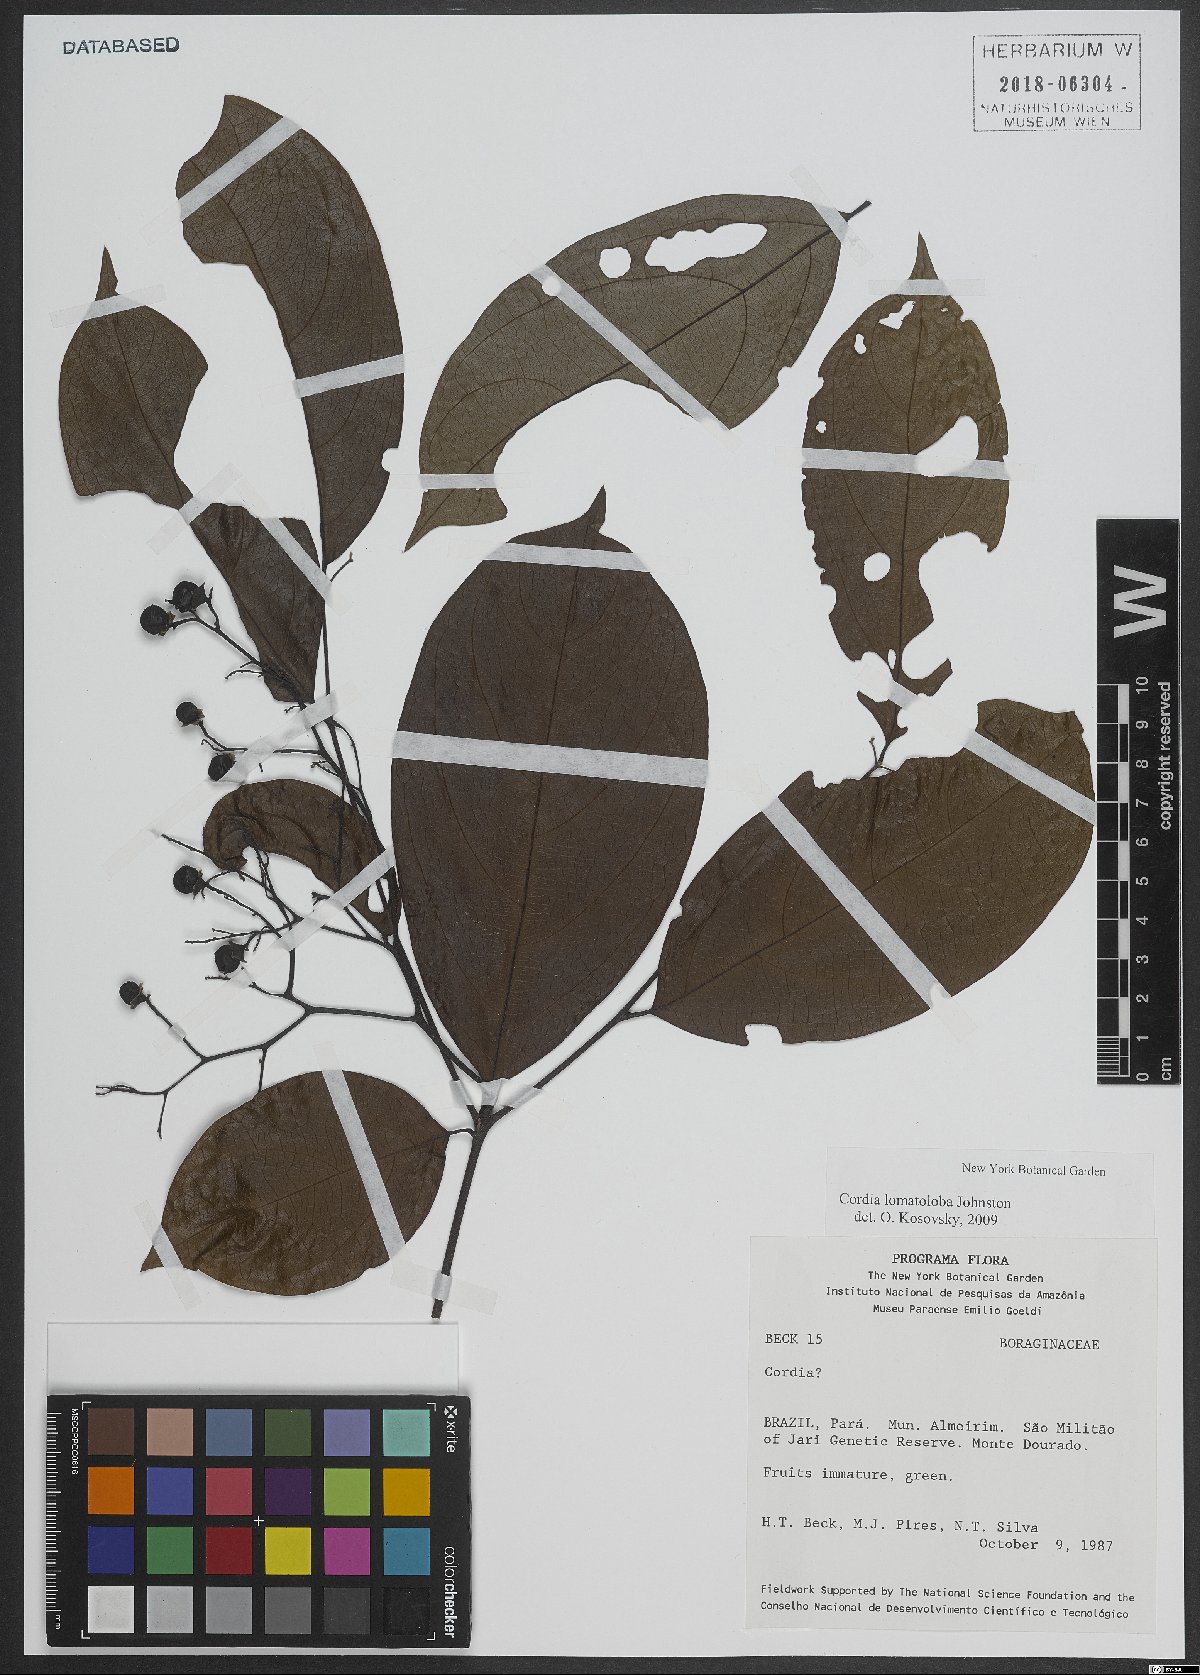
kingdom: Plantae
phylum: Tracheophyta
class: Magnoliopsida
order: Boraginales
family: Cordiaceae
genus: Cordia
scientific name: Cordia lomatoloba
